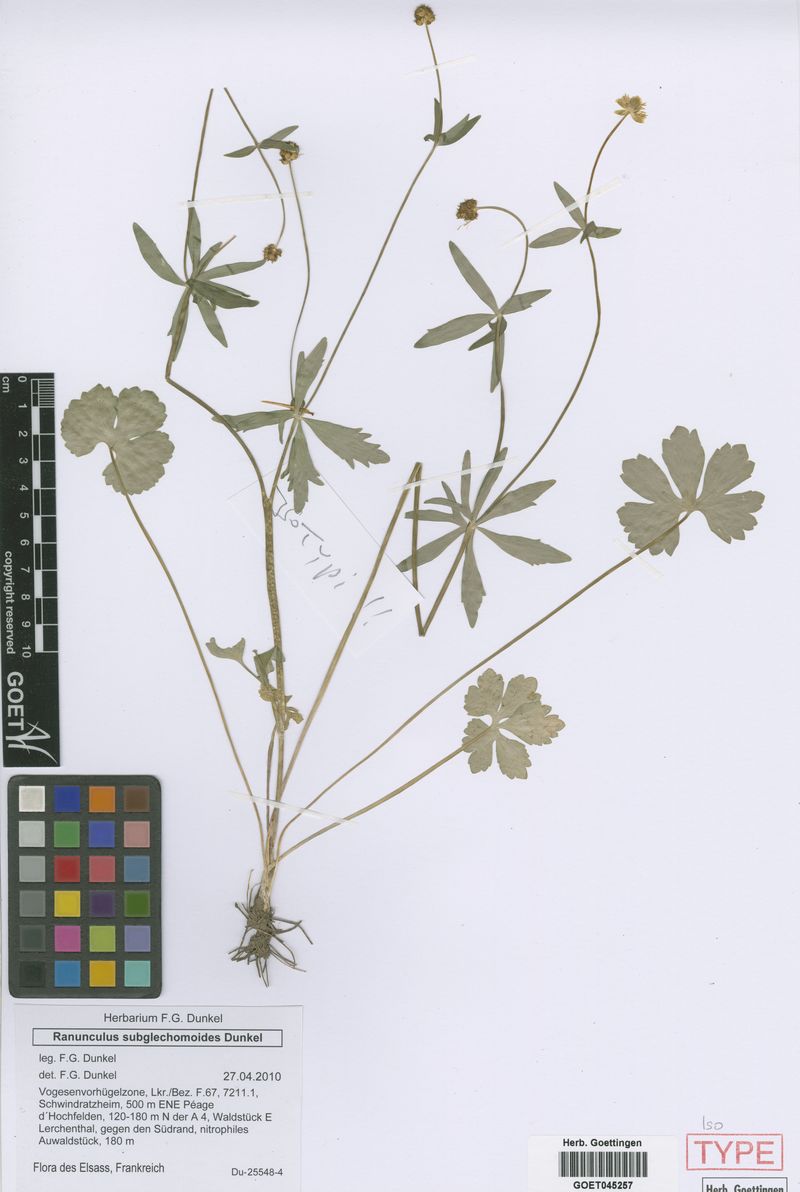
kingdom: Plantae
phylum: Tracheophyta
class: Magnoliopsida
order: Ranunculales
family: Ranunculaceae
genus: Ranunculus
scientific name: Ranunculus subglechomoides
